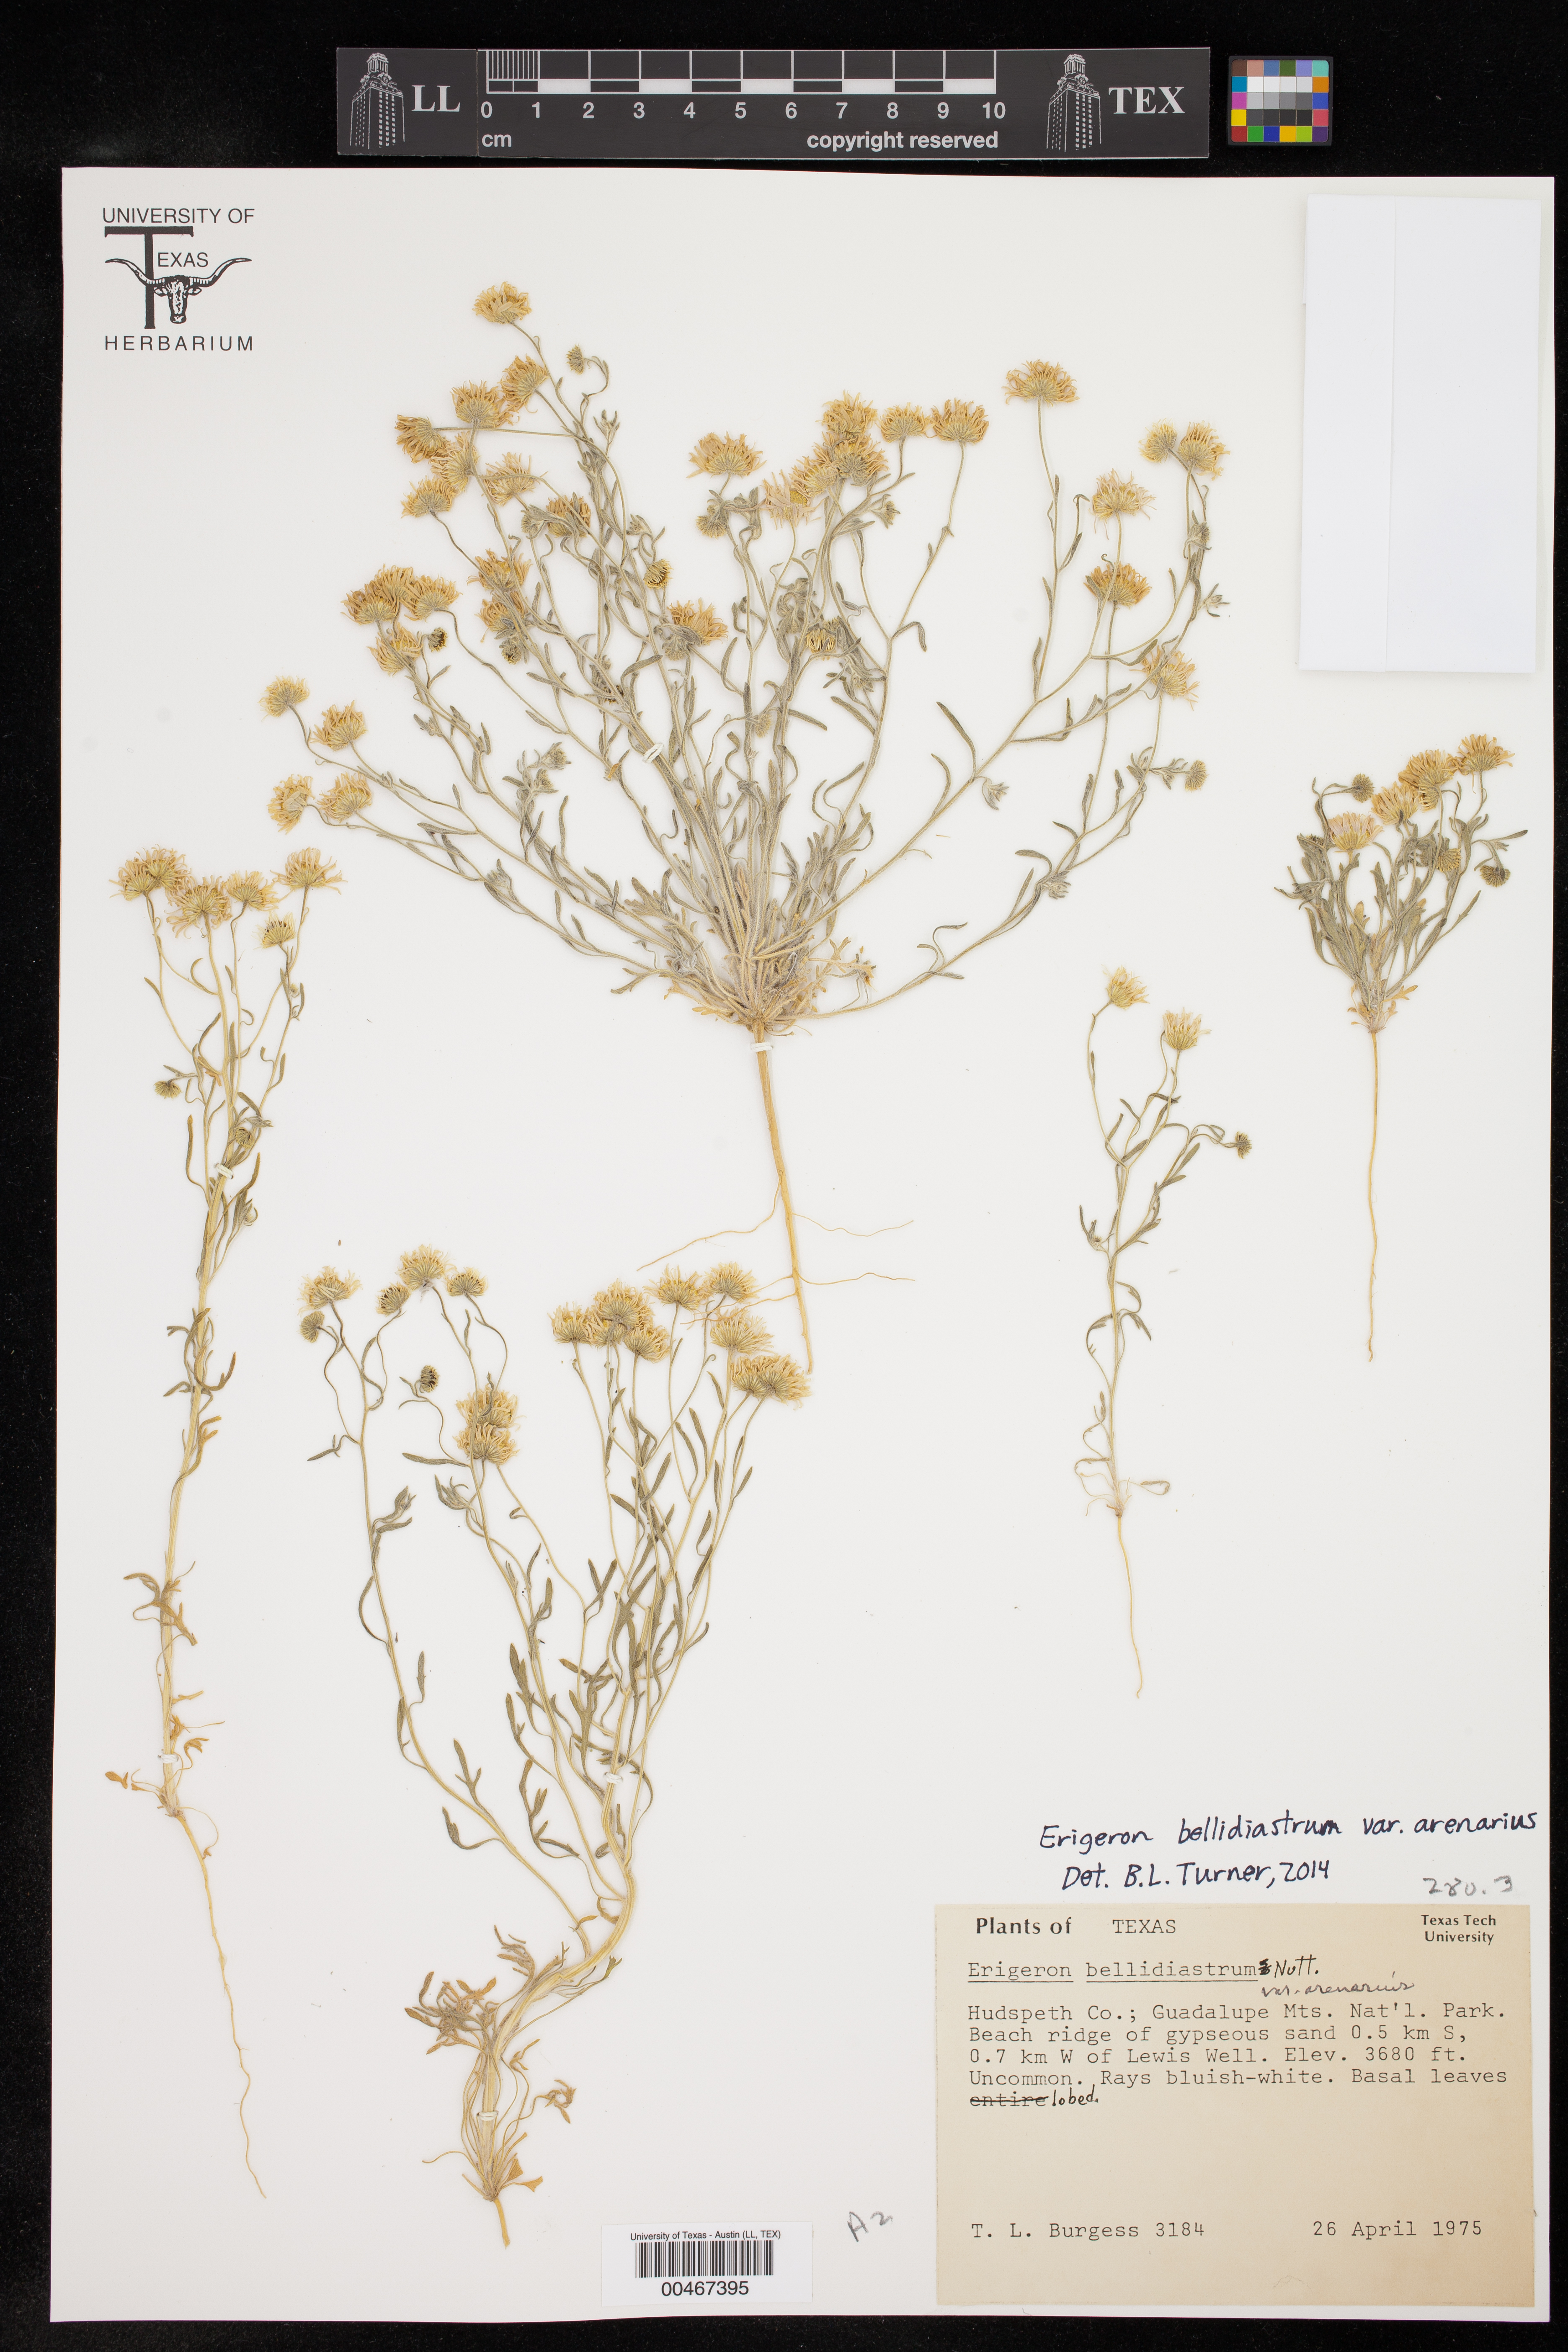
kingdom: Plantae
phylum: Tracheophyta
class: Magnoliopsida
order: Asterales
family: Asteraceae
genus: Erigeron
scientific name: Erigeron bellidiastrum
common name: Sand fleabane
